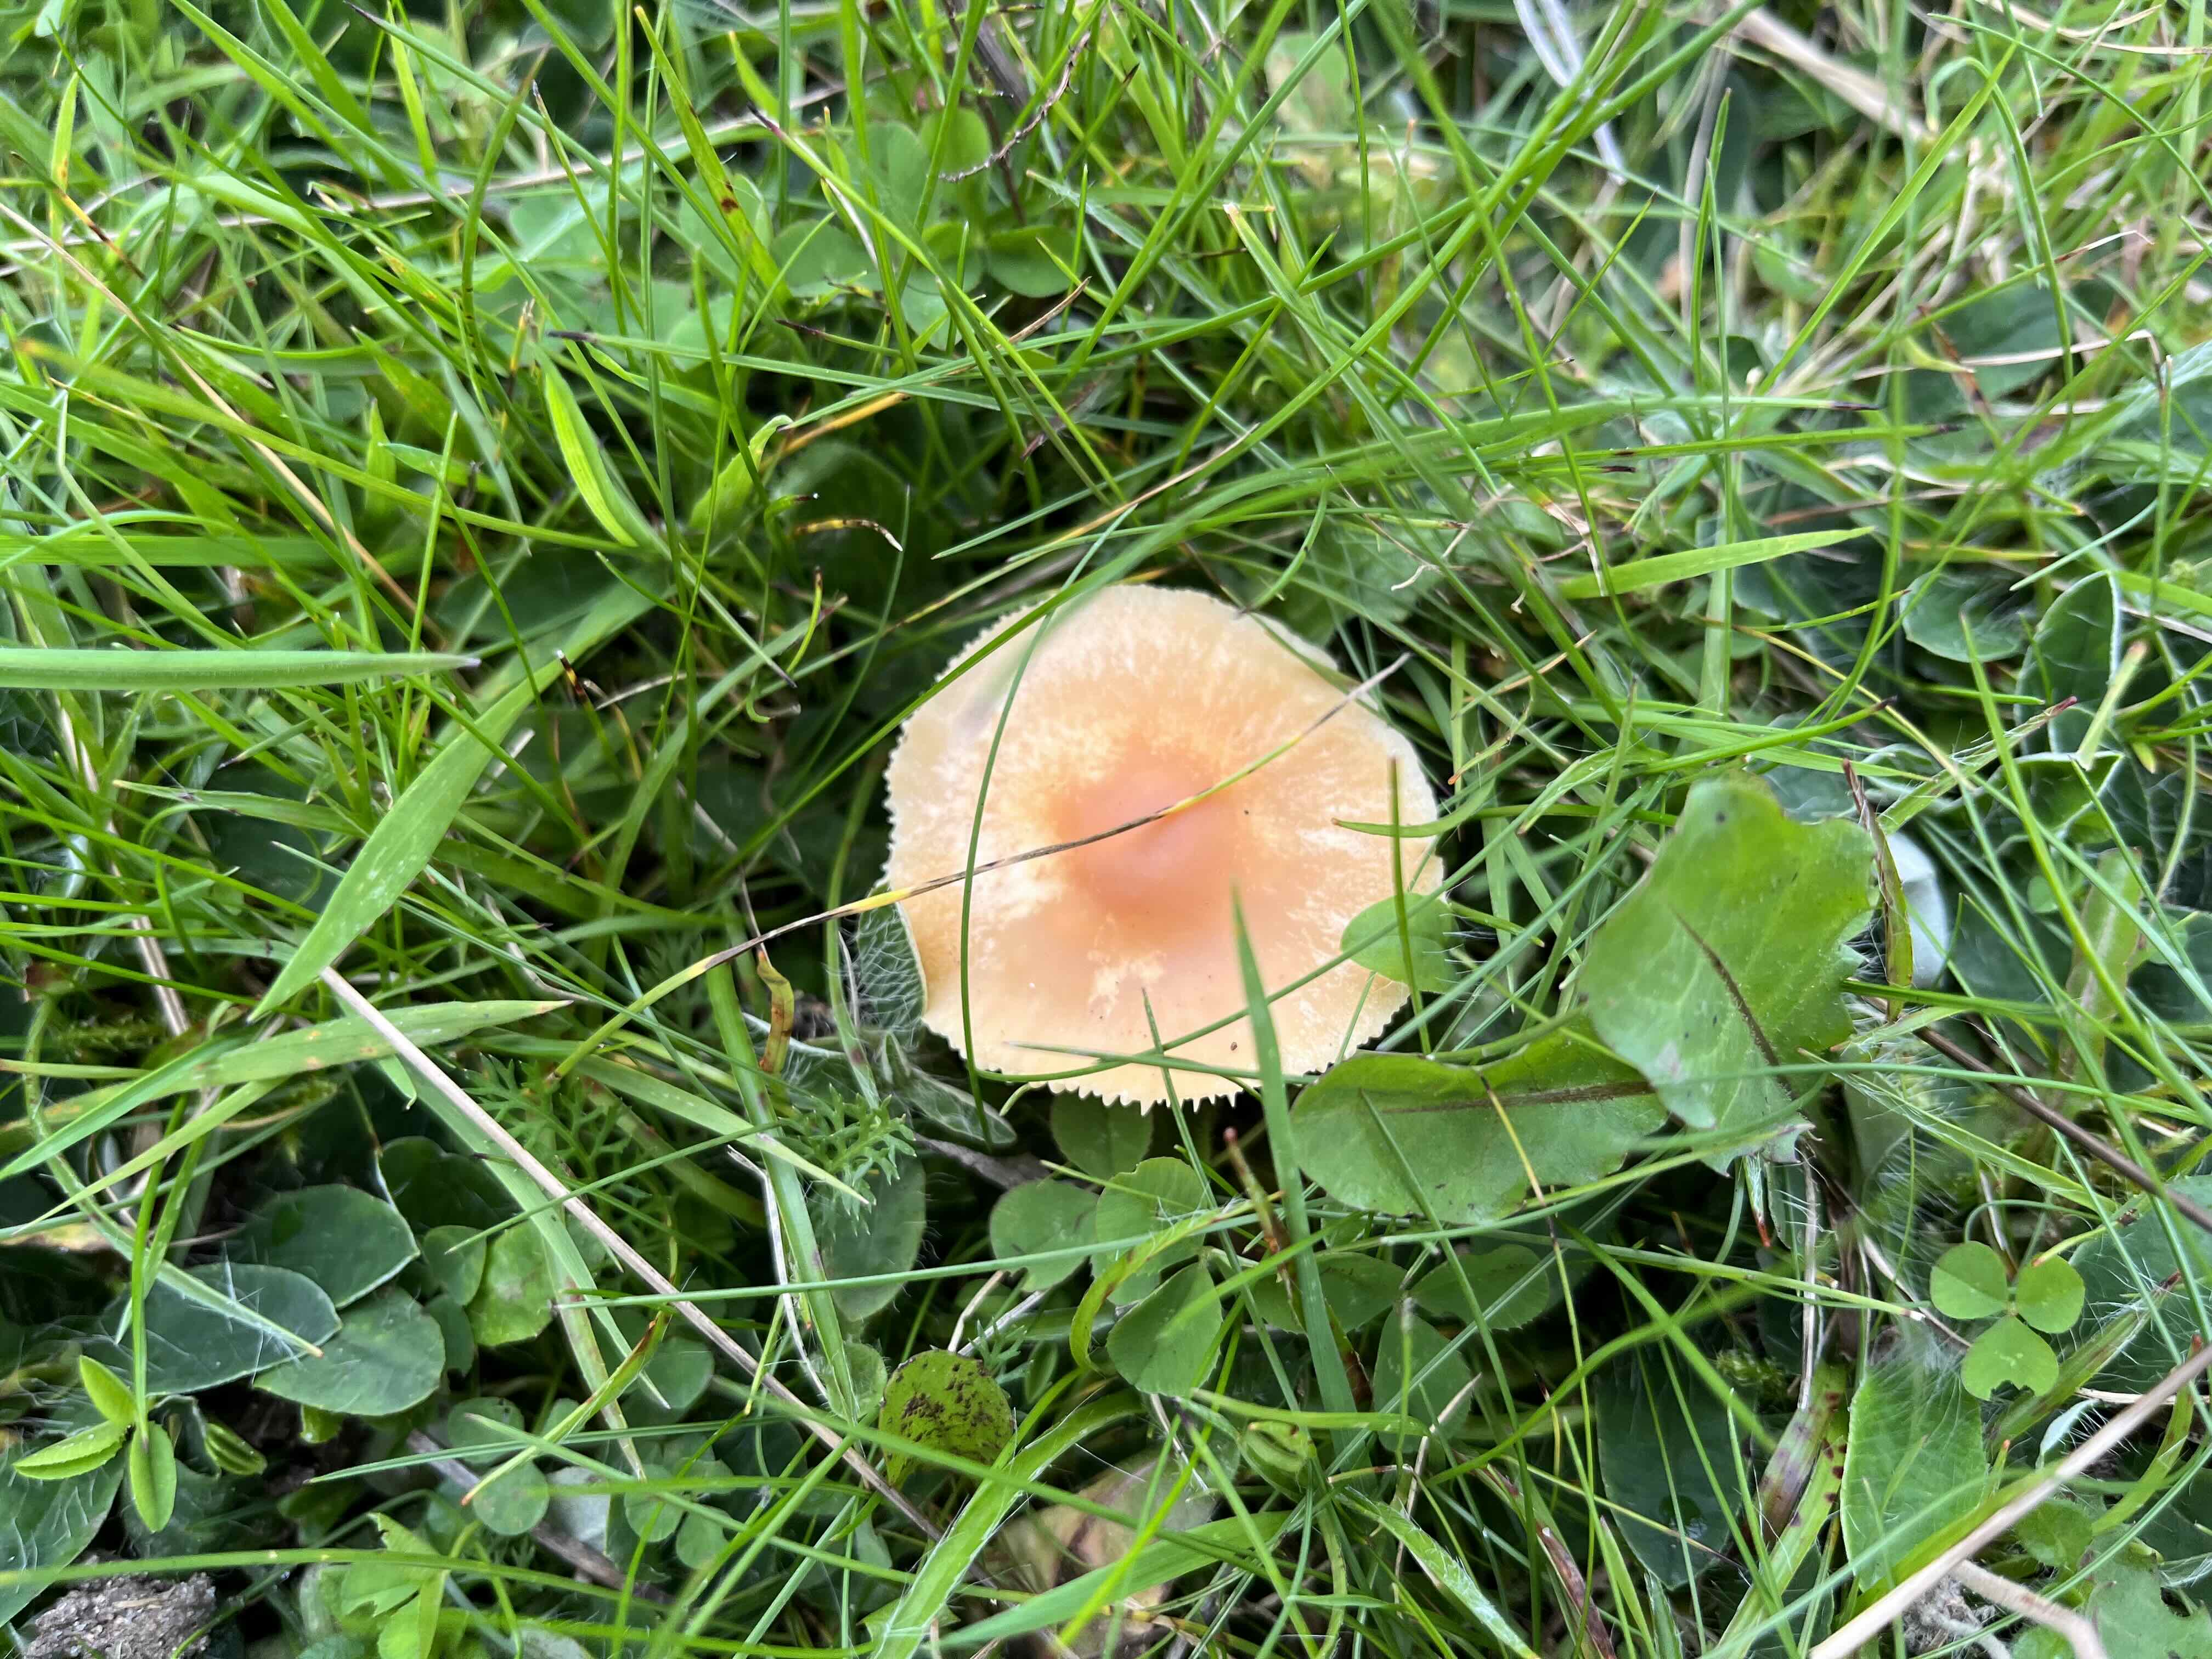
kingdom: Fungi
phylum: Basidiomycota
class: Agaricomycetes
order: Agaricales
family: Hygrophoraceae
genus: Cuphophyllus
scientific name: Cuphophyllus pratensis
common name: eng-vokshat
